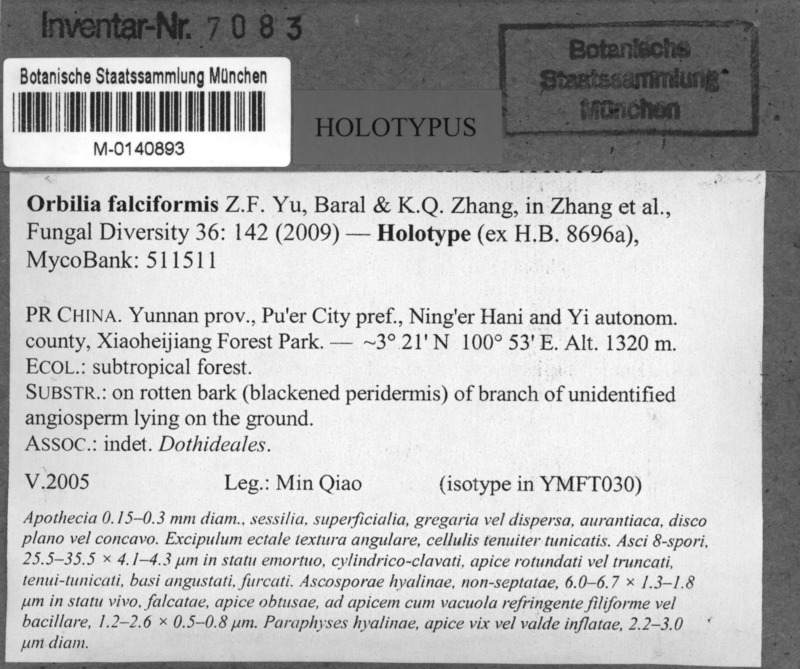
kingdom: Fungi
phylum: Ascomycota
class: Orbiliomycetes
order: Orbiliales
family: Orbiliaceae
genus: Orbilia
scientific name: Orbilia falciformis
